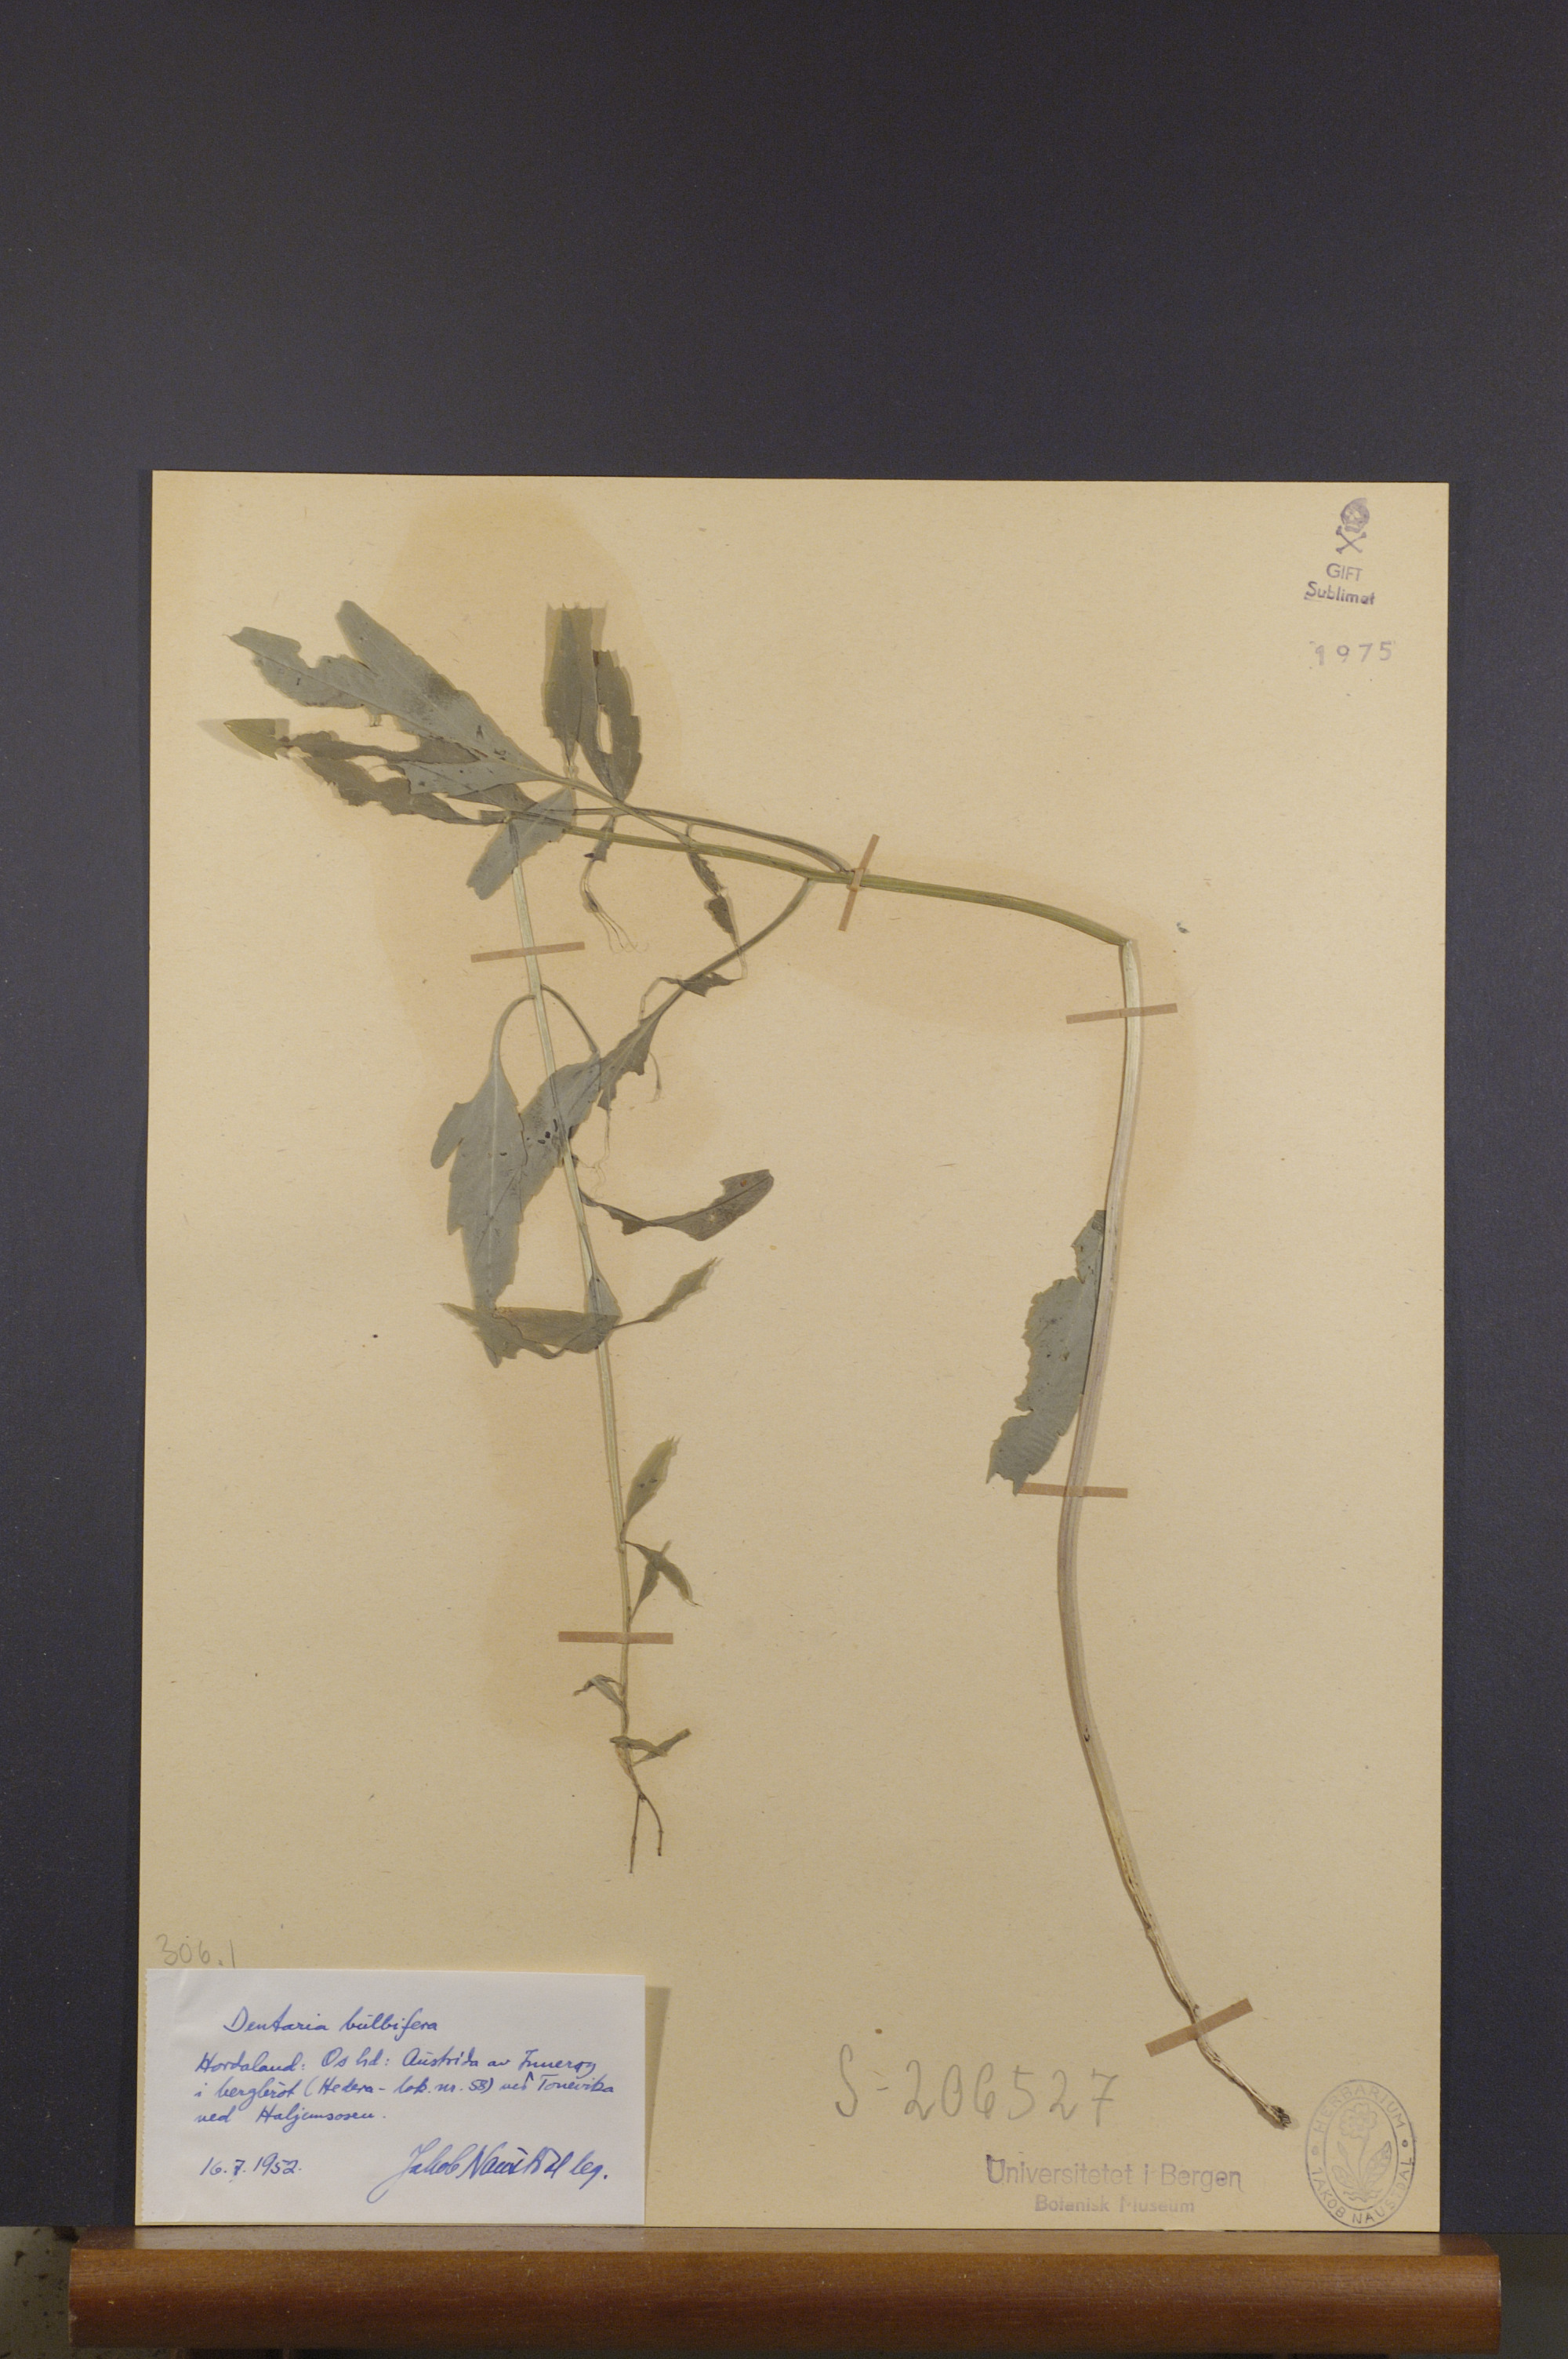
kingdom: Plantae
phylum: Tracheophyta
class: Magnoliopsida
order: Brassicales
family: Brassicaceae
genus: Cardamine
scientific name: Cardamine bulbifera
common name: Coralroot bittercress
